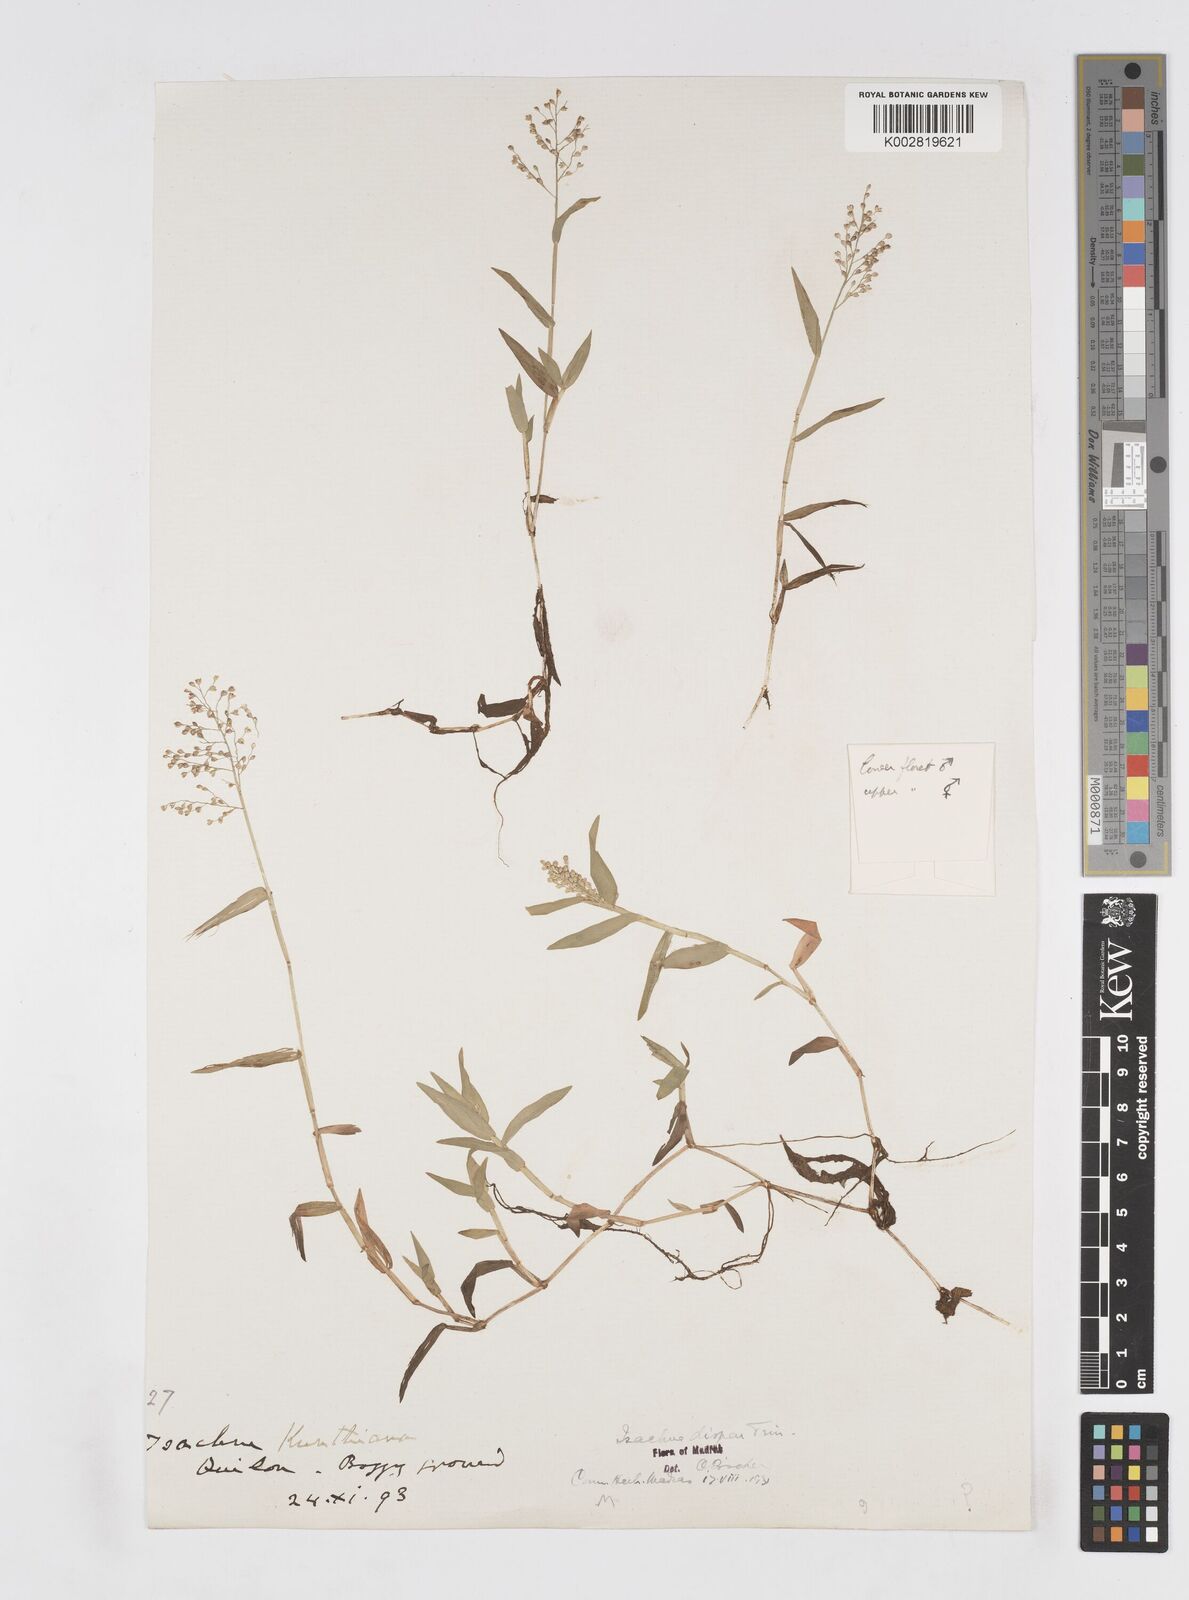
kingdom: Plantae
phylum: Tracheophyta
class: Liliopsida
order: Poales
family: Poaceae
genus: Isachne
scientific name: Isachne globosa
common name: Swamp millet
